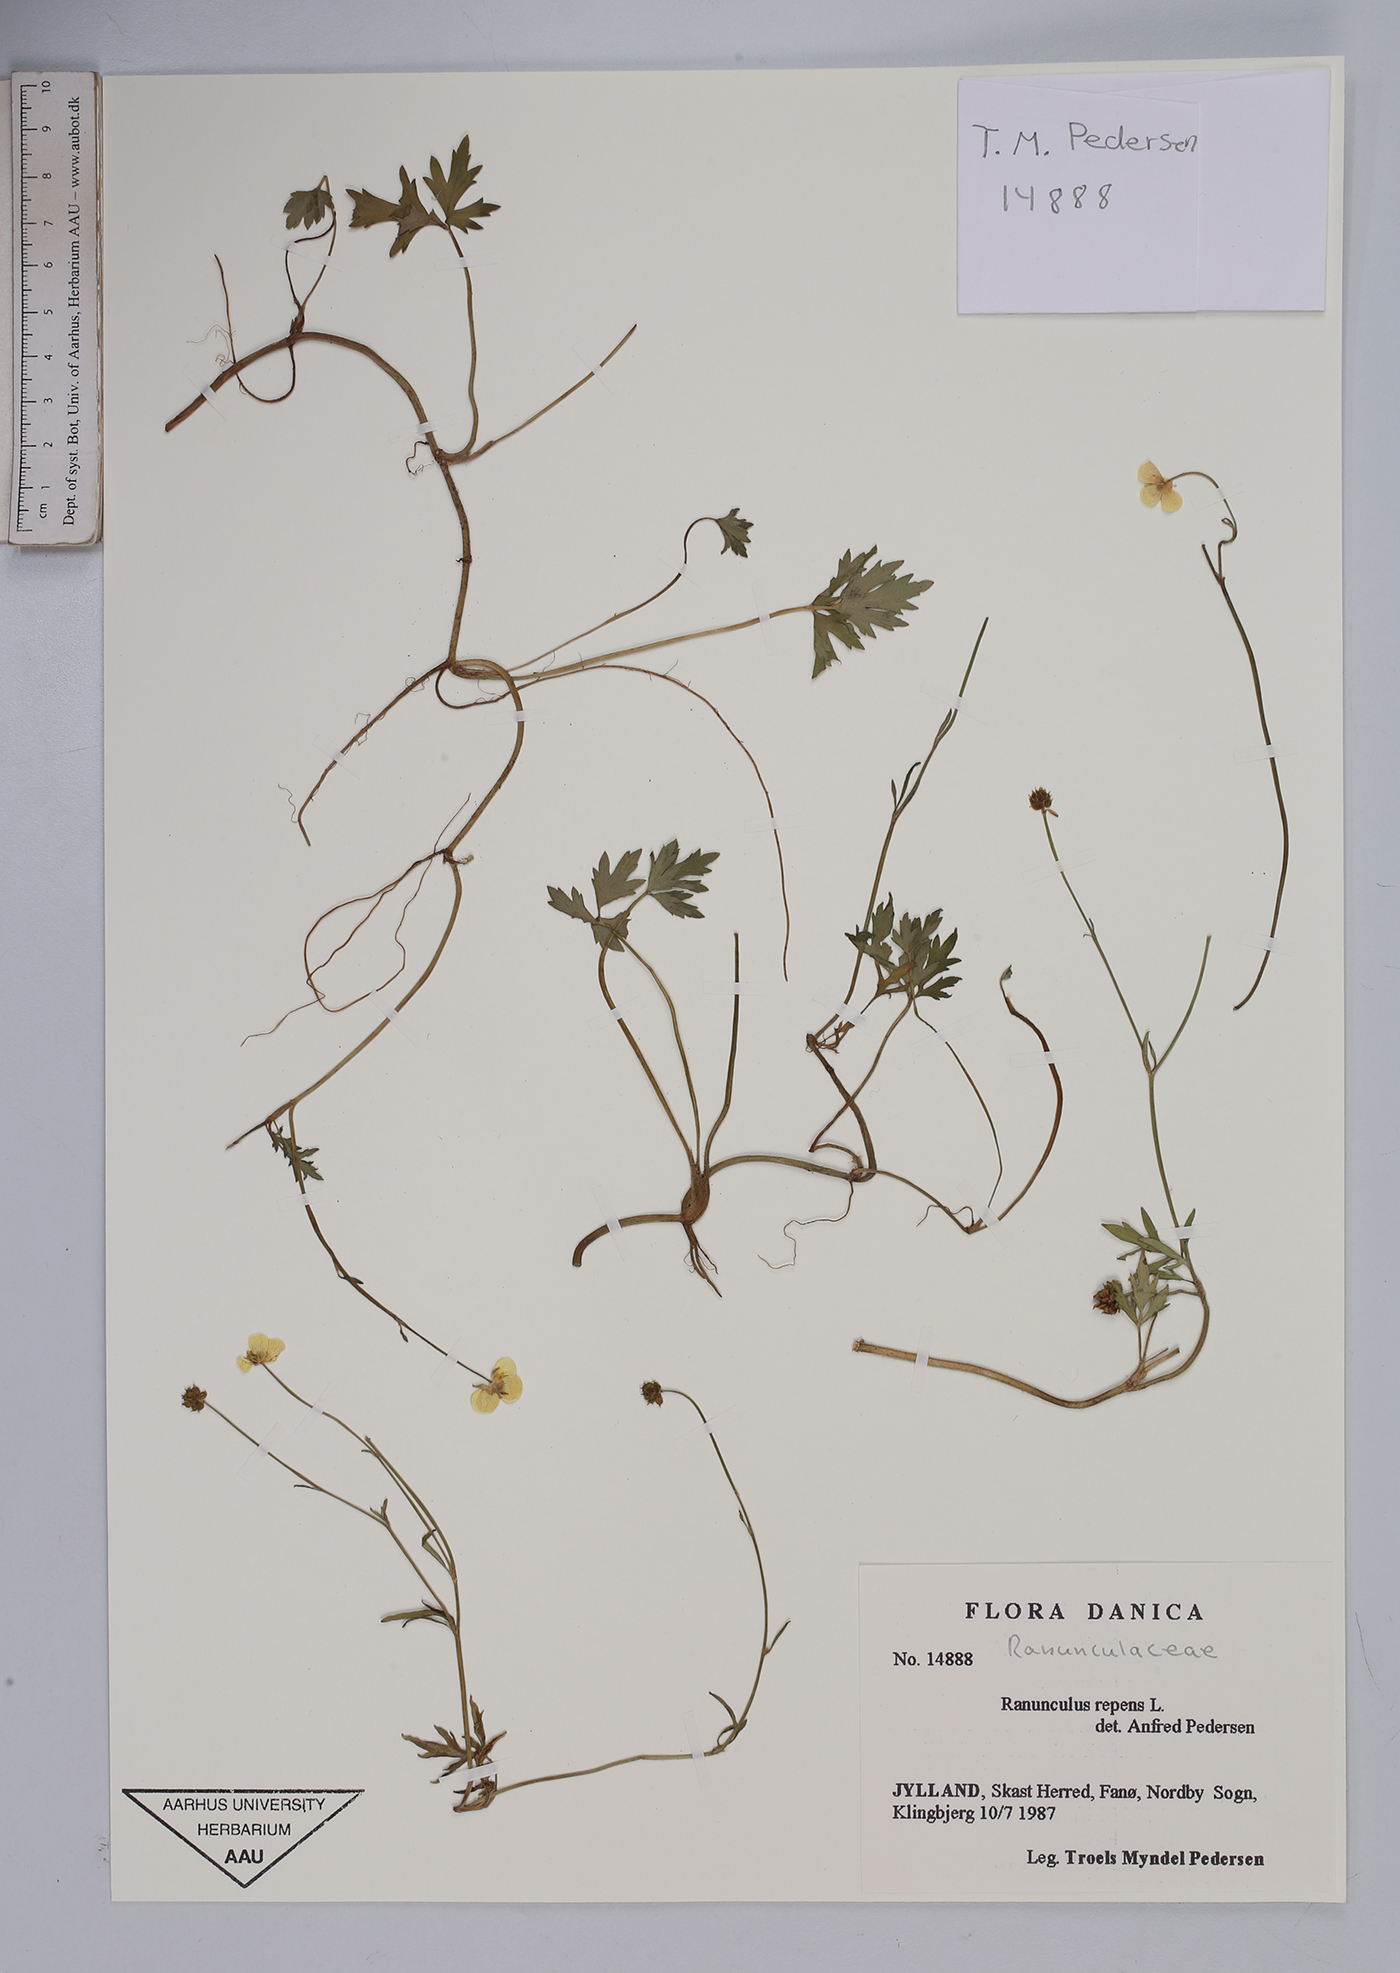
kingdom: Plantae
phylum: Tracheophyta
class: Magnoliopsida
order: Ranunculales
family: Ranunculaceae
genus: Ranunculus
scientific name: Ranunculus repens
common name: Creeping buttercup
